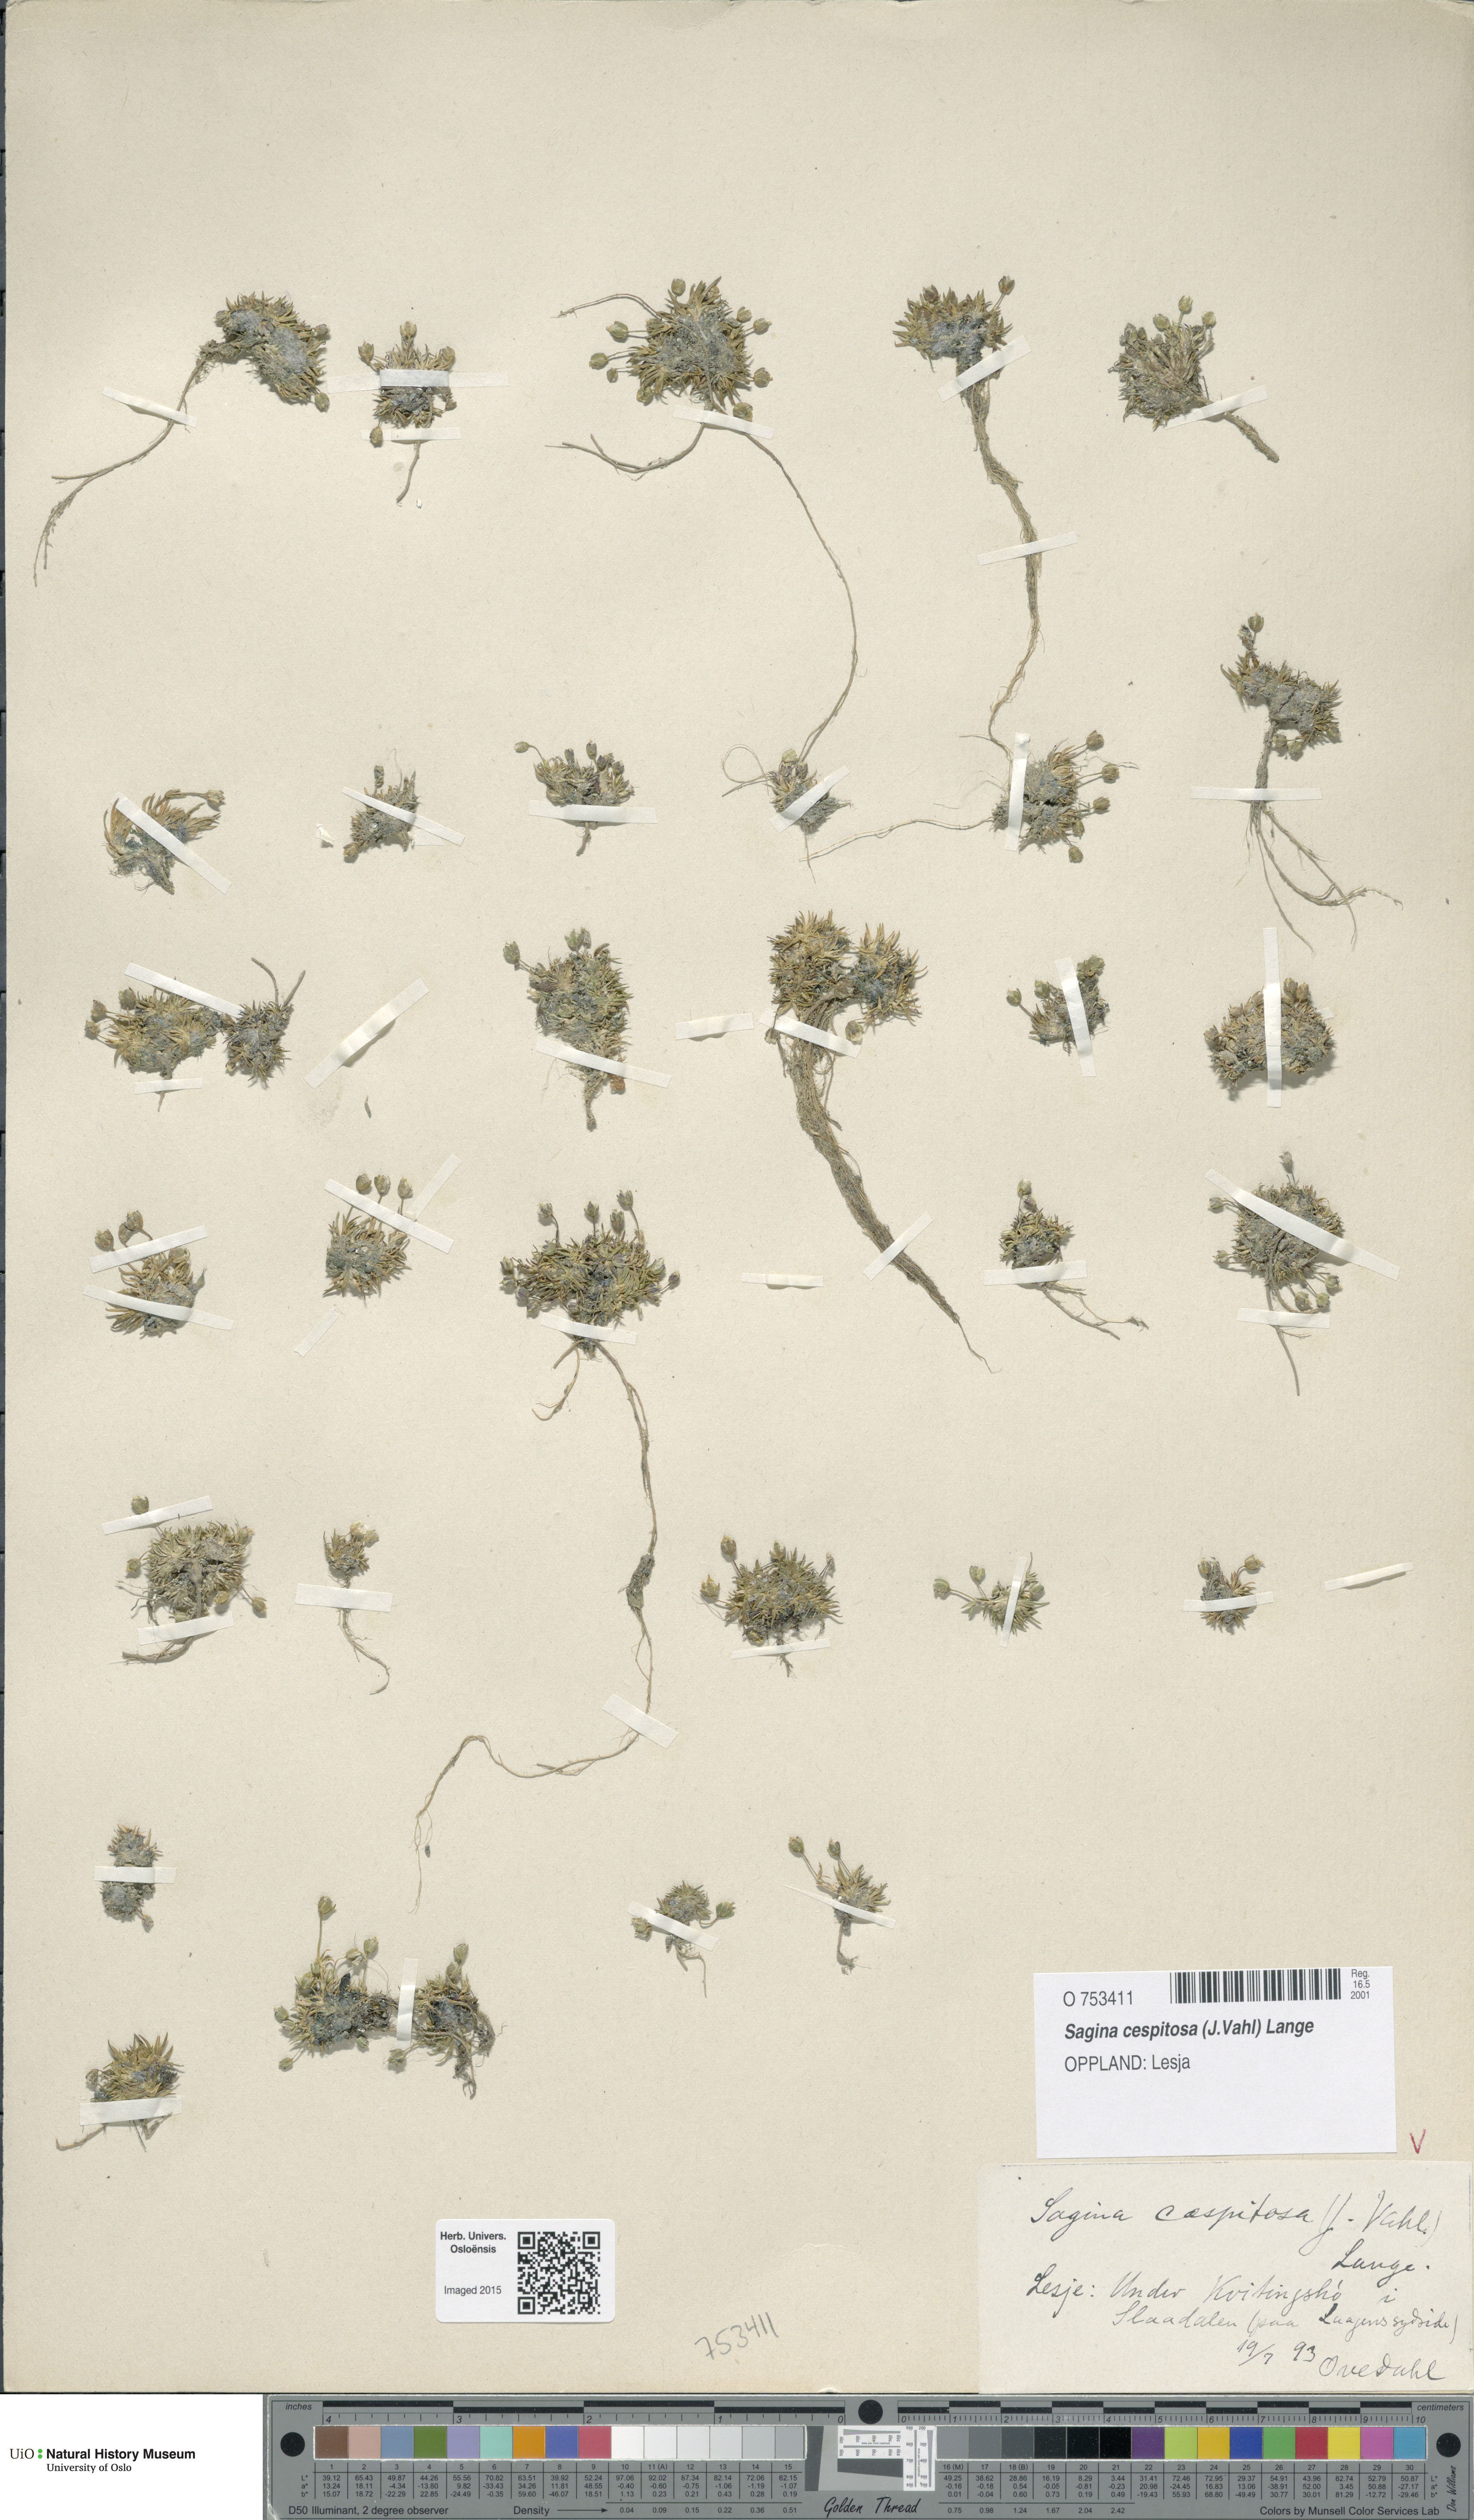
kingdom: Plantae
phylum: Tracheophyta
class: Magnoliopsida
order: Caryophyllales
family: Caryophyllaceae
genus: Sagina
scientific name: Sagina caespitosa
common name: Tufted pearlwort
